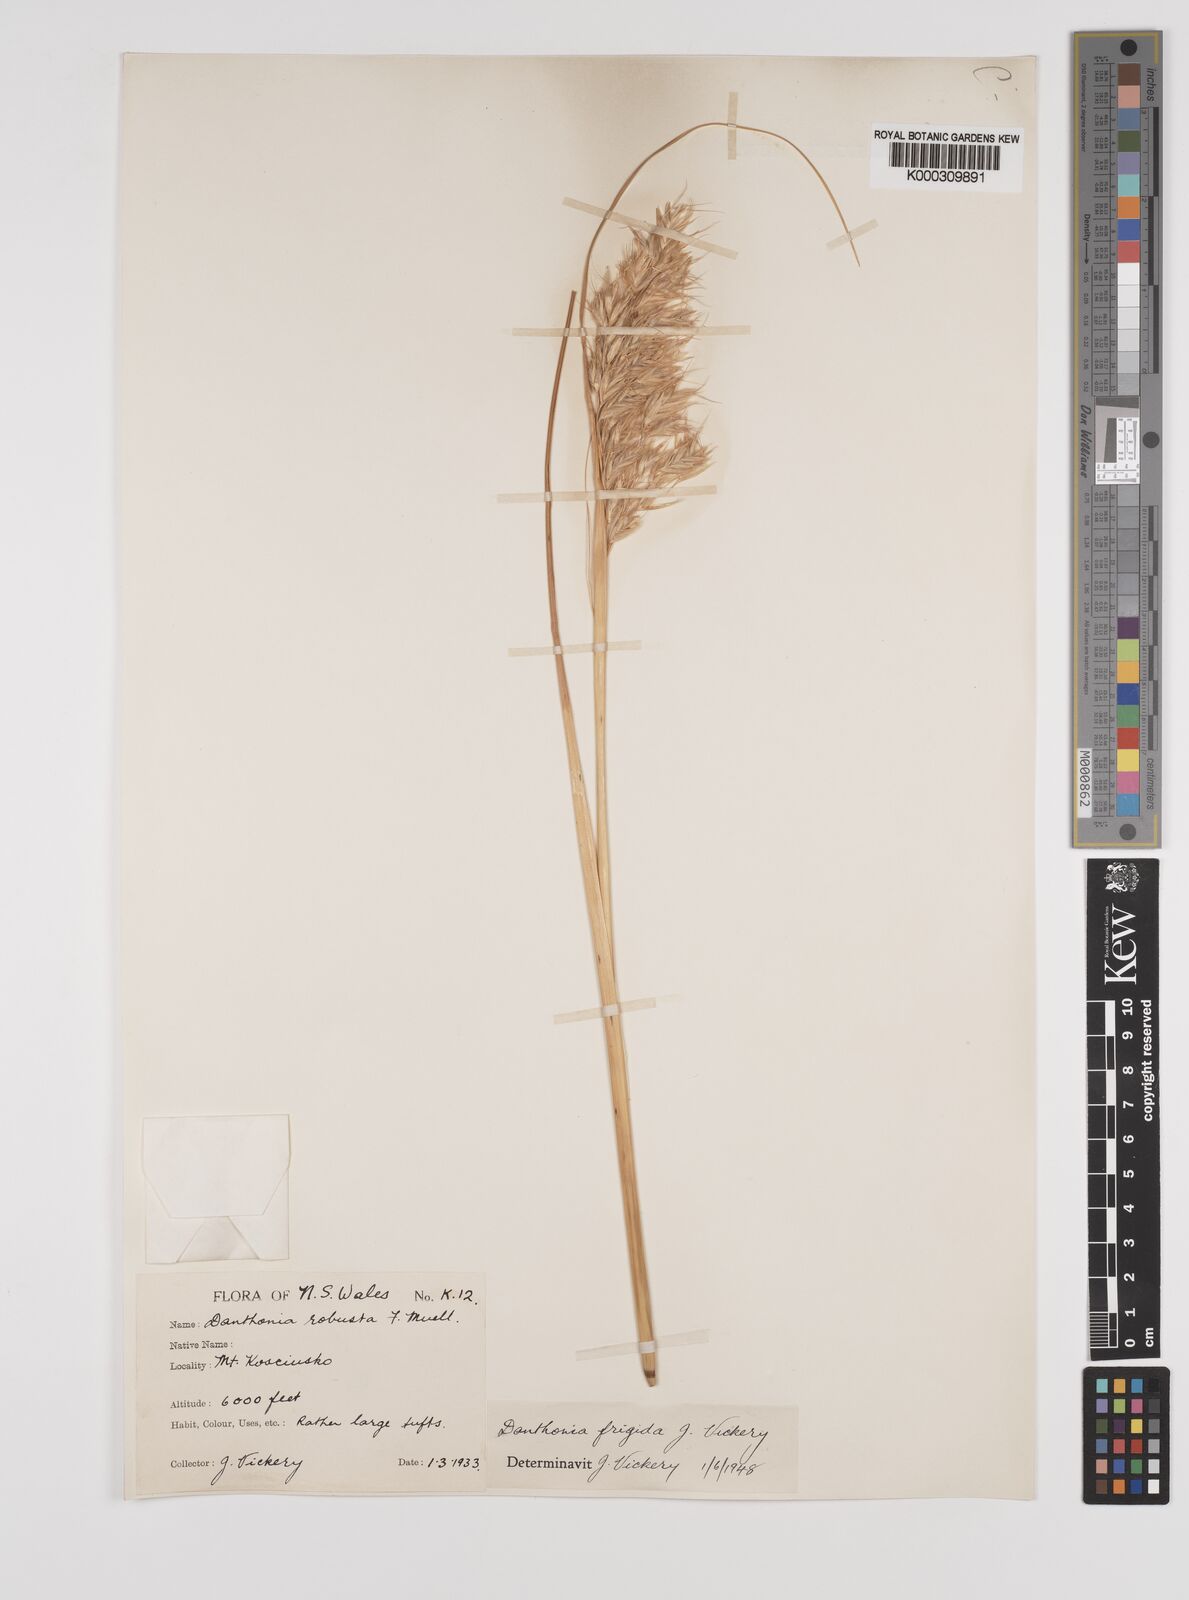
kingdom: Plantae
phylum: Tracheophyta
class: Liliopsida
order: Poales
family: Poaceae
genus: Chionochloa
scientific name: Chionochloa frigida
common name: Robust wallaby grass
